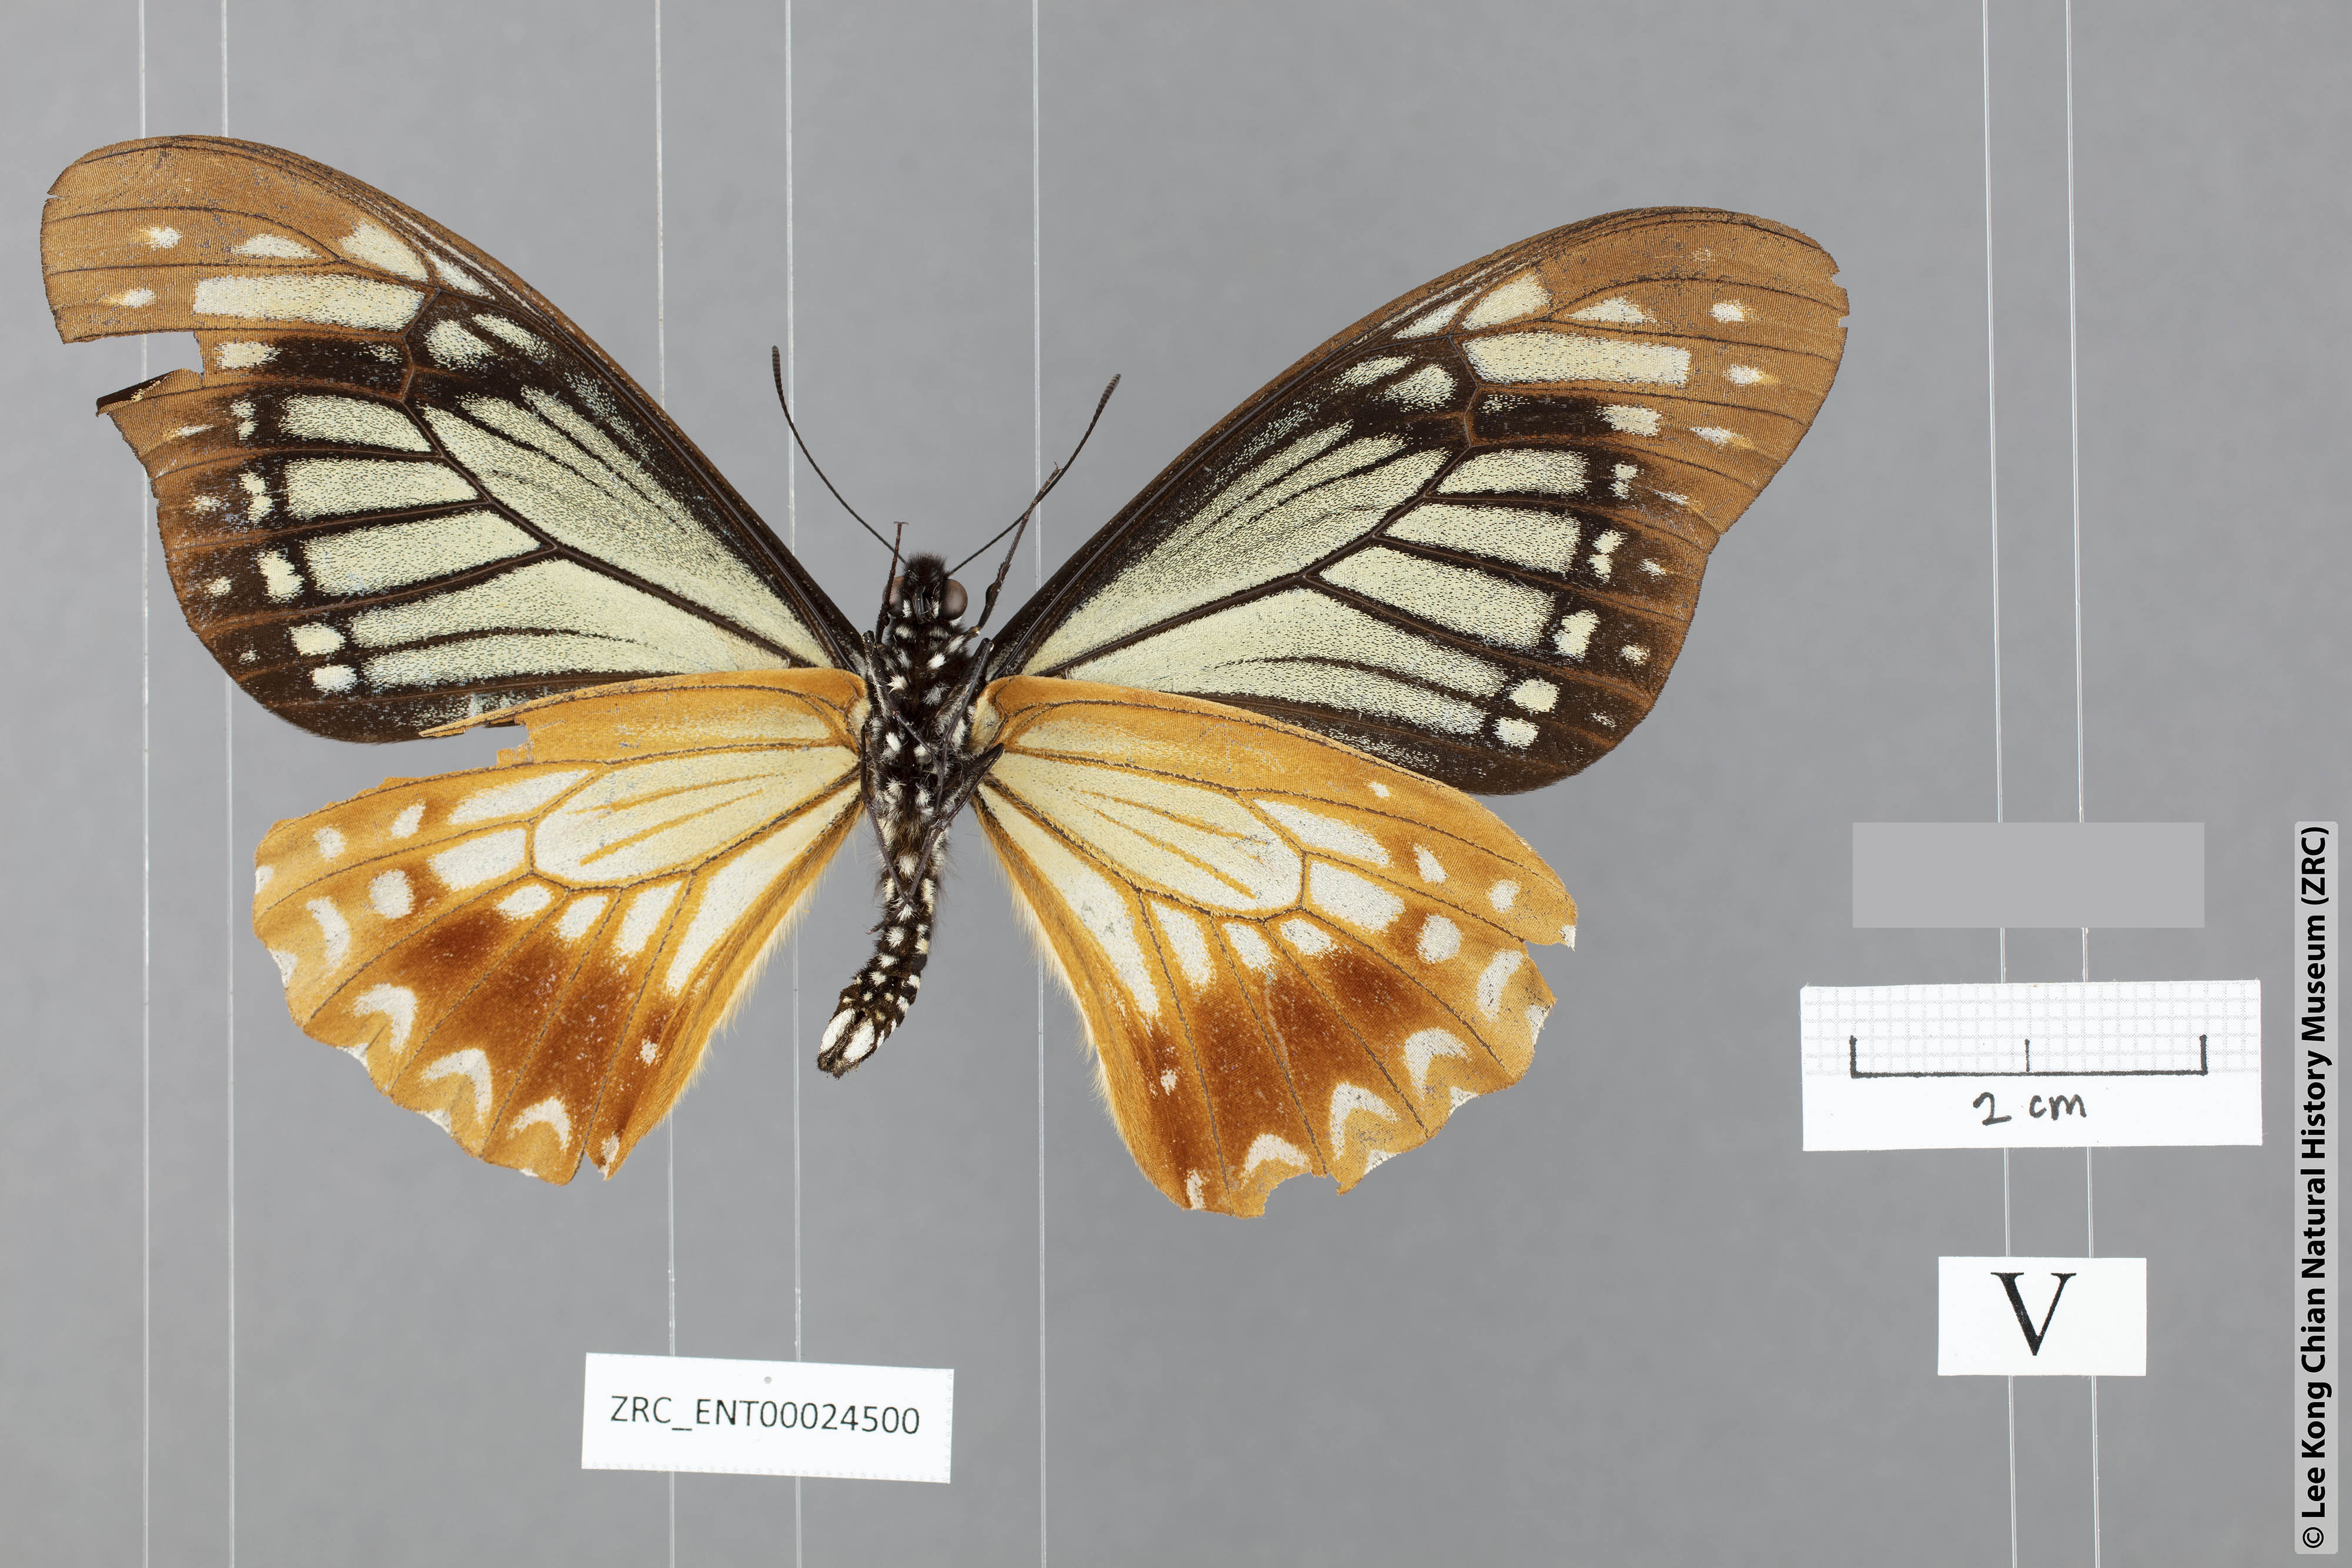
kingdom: Animalia
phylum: Arthropoda
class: Insecta
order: Lepidoptera
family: Papilionidae
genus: Chilasa
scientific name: Chilasa agestor
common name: Tawny mime
